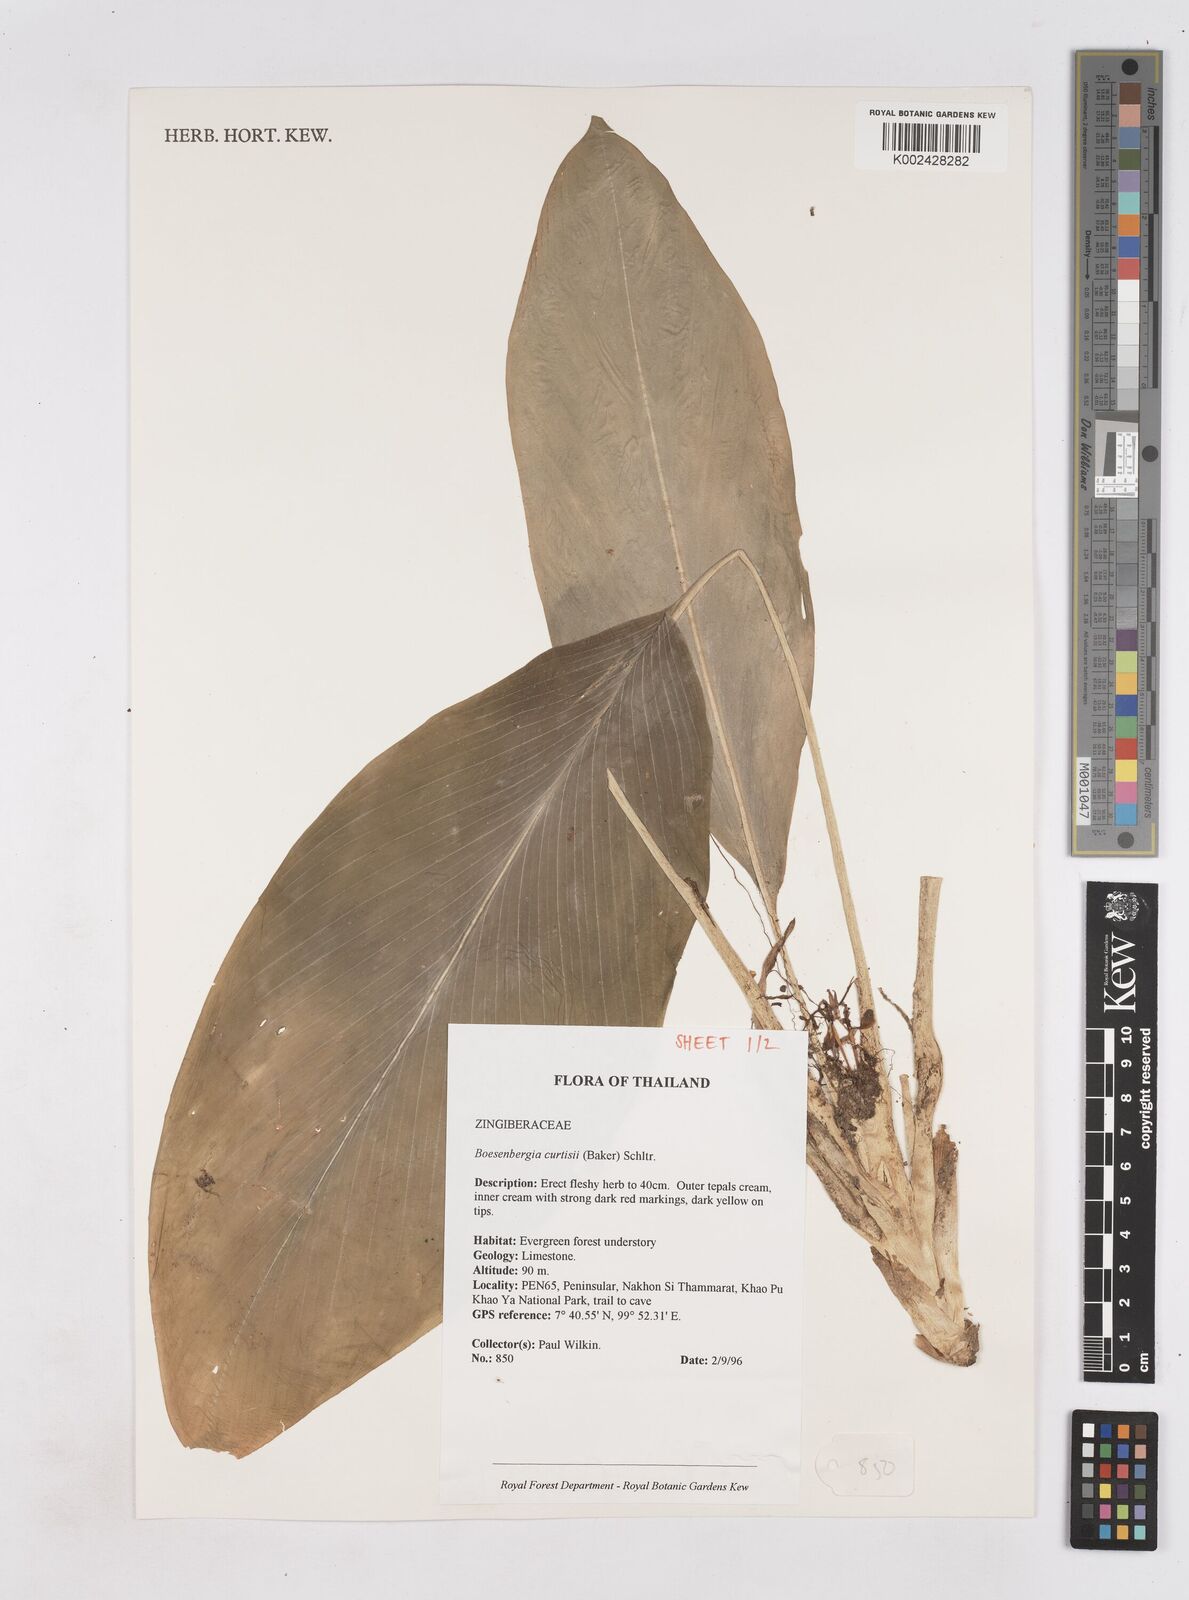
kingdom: Plantae
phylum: Tracheophyta
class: Liliopsida
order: Zingiberales
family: Zingiberaceae
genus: Boesenbergia
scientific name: Boesenbergia curtisii
